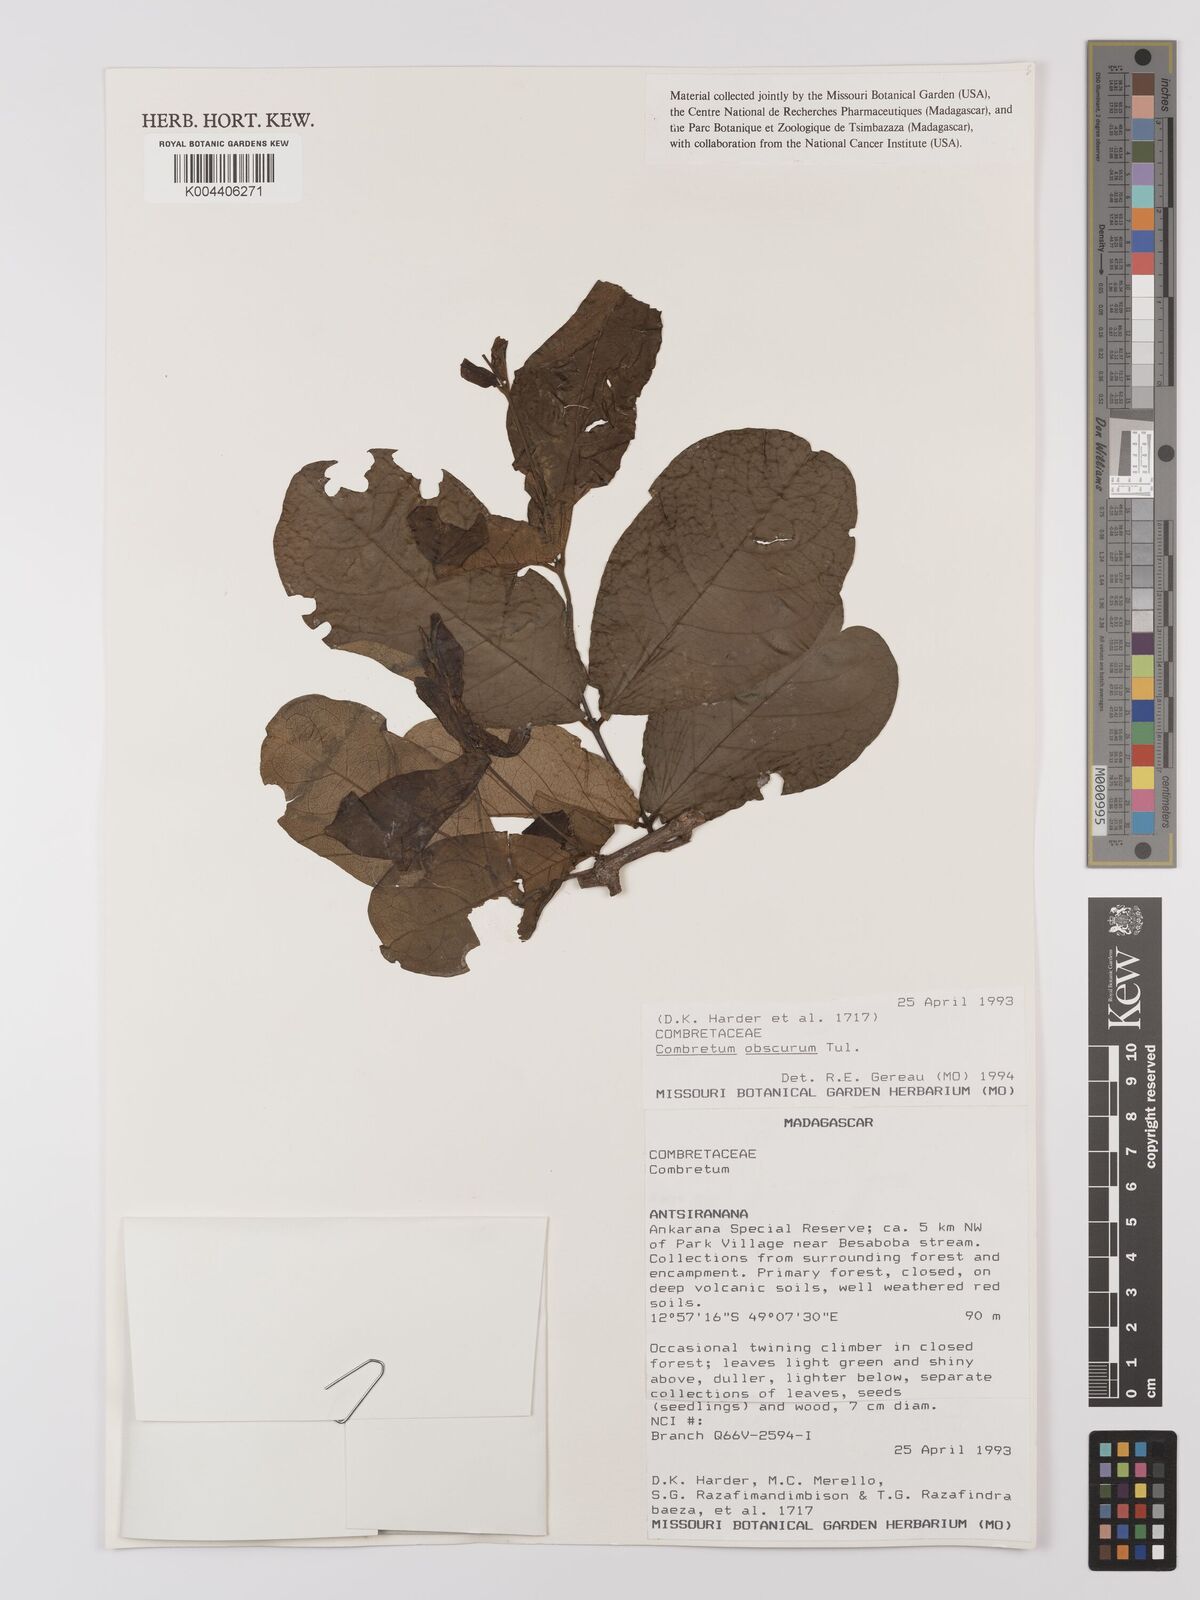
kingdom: Plantae
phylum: Tracheophyta
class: Magnoliopsida
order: Myrtales
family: Combretaceae
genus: Combretum
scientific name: Combretum obscurum
